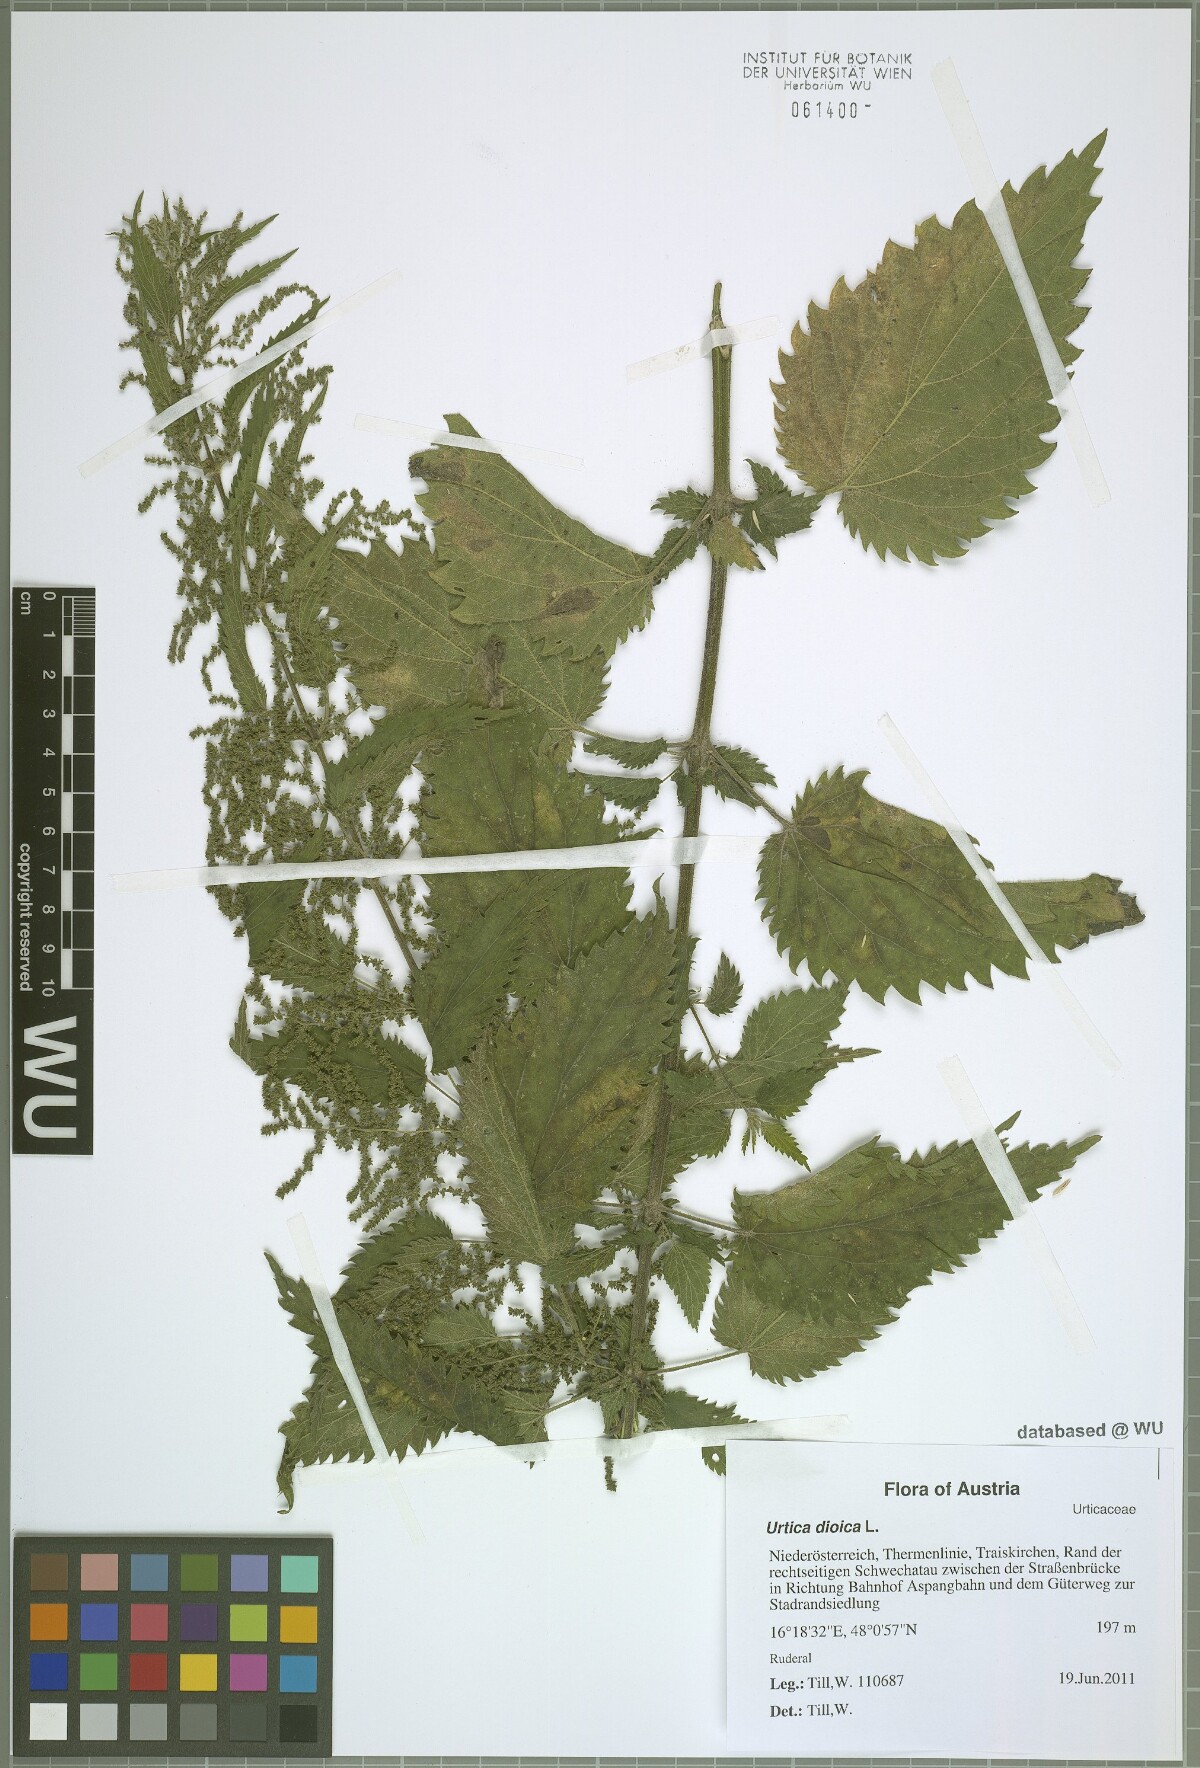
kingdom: Plantae
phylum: Tracheophyta
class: Magnoliopsida
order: Rosales
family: Urticaceae
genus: Urtica
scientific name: Urtica dioica
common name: Common nettle
